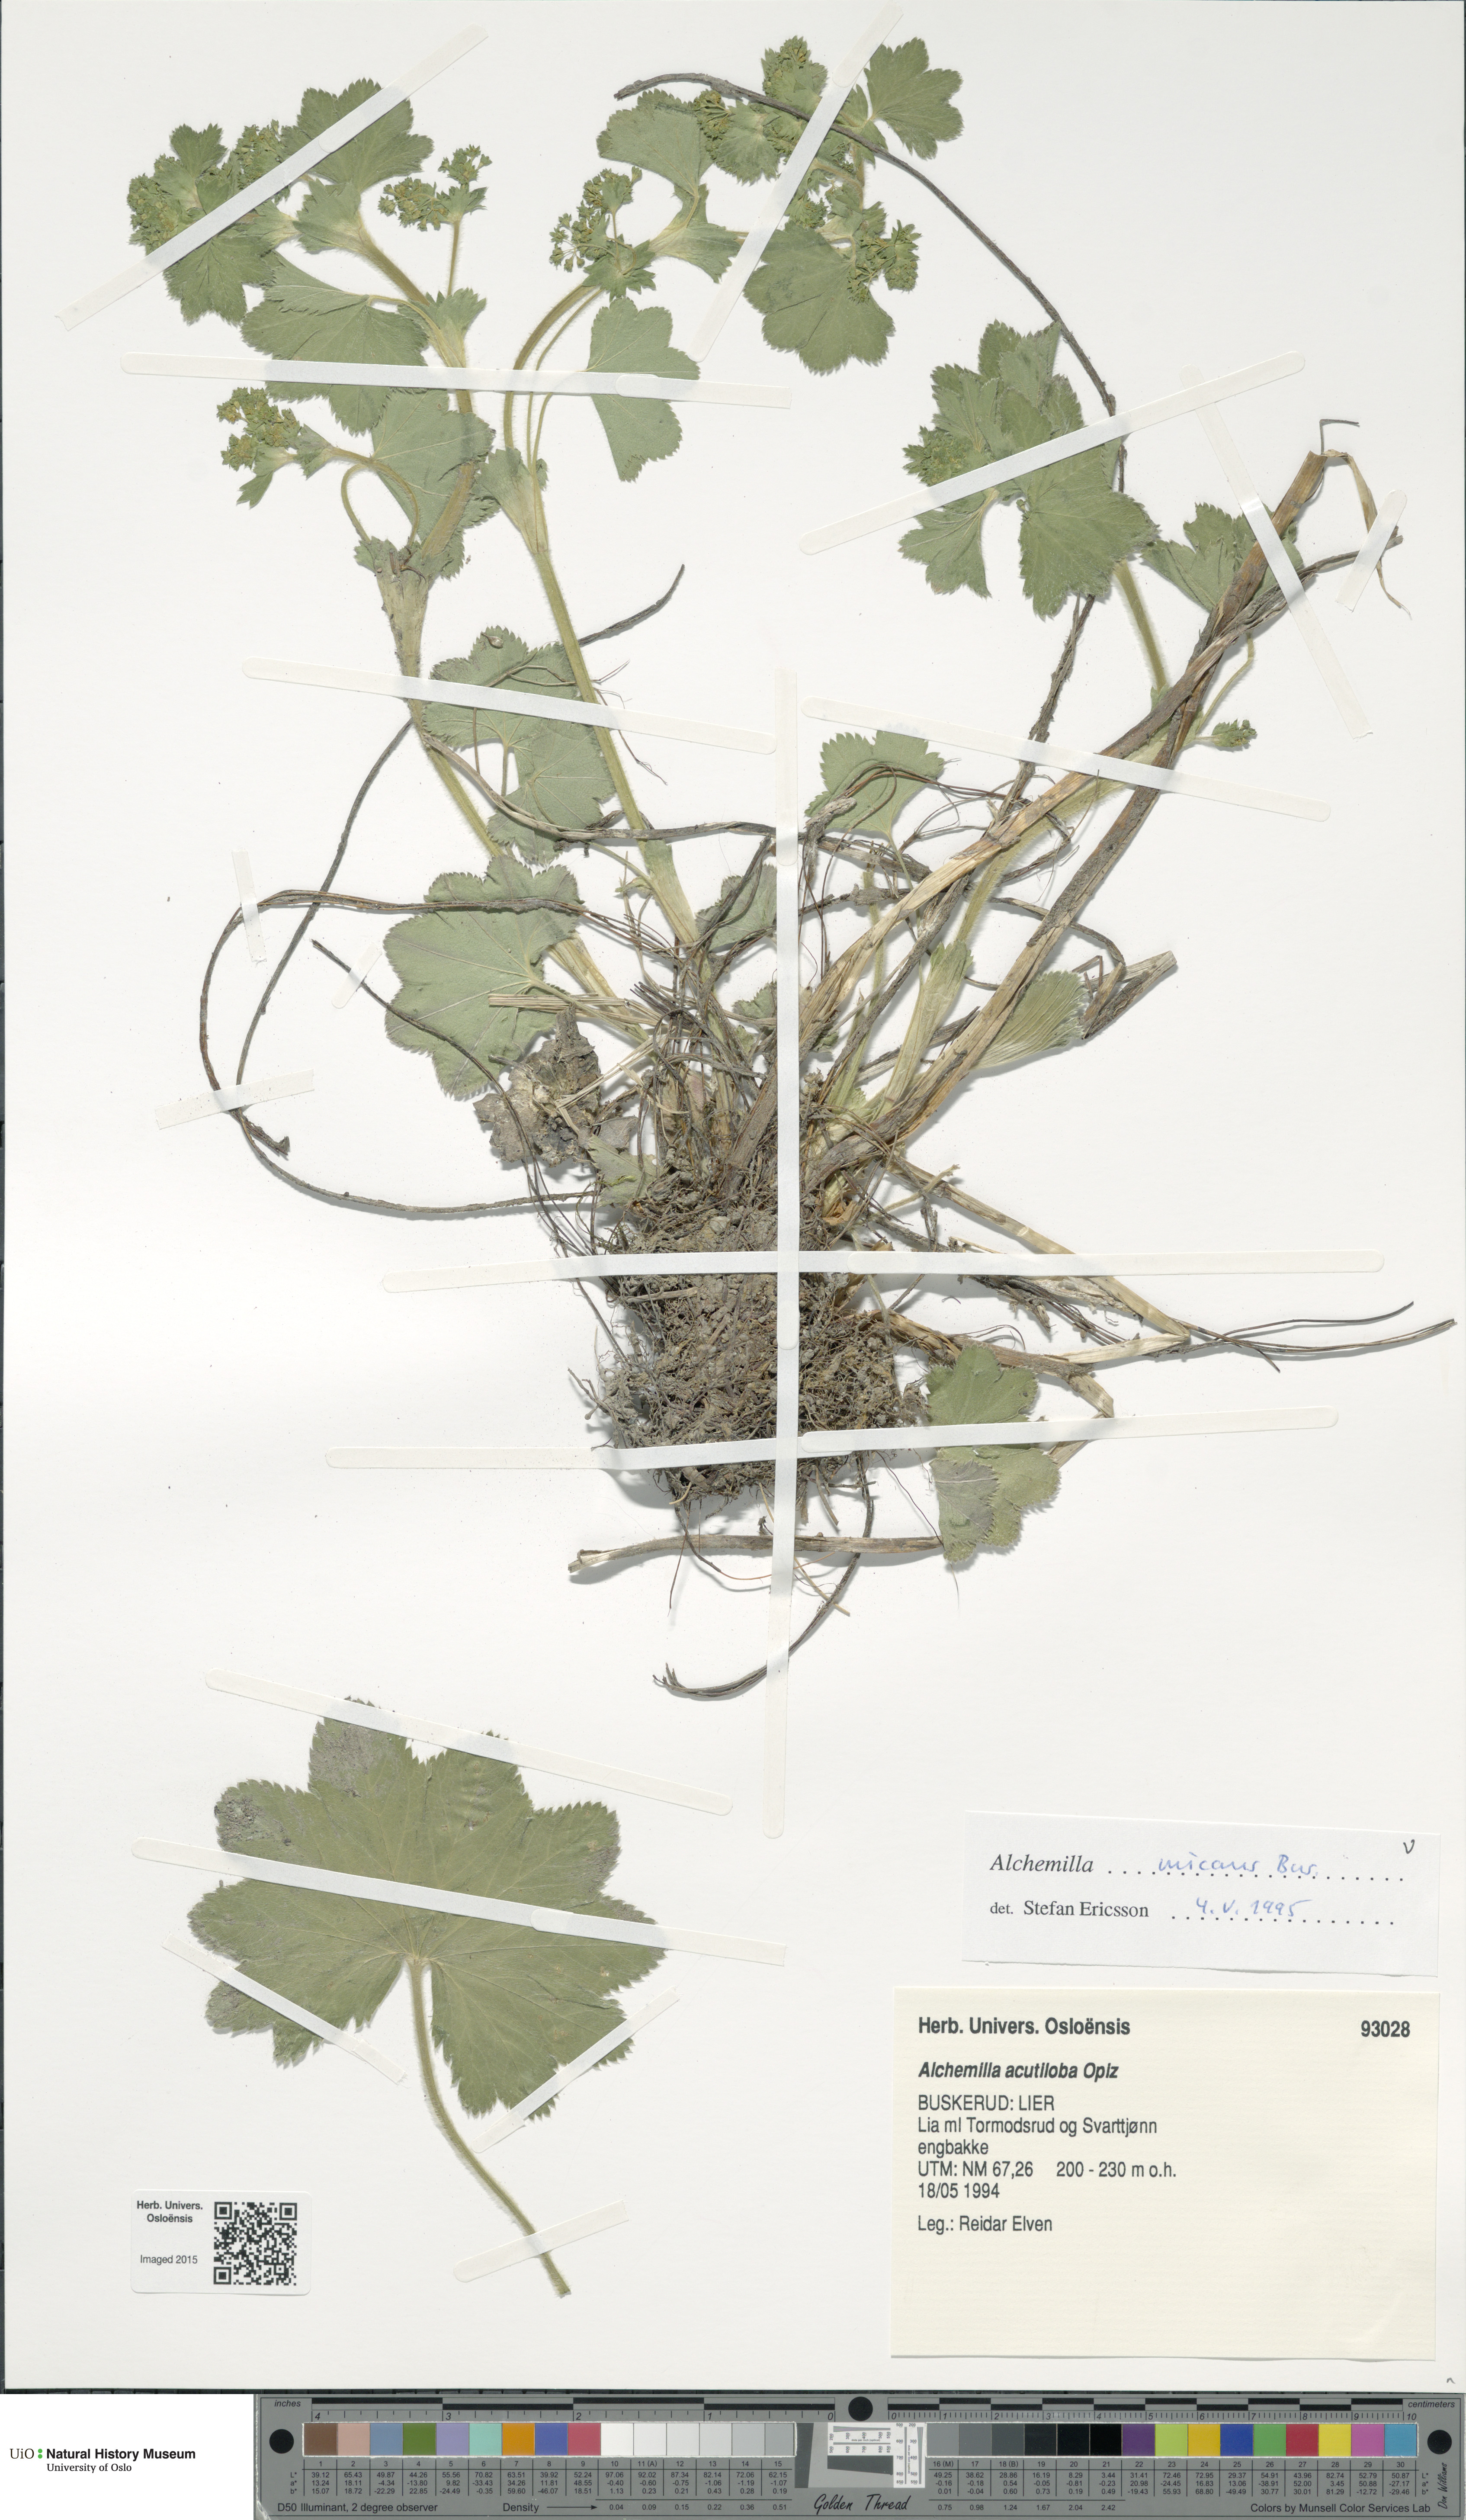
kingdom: Plantae
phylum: Tracheophyta
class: Magnoliopsida
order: Rosales
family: Rosaceae
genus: Alchemilla
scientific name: Alchemilla micans
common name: Gleaming lady's mantle
